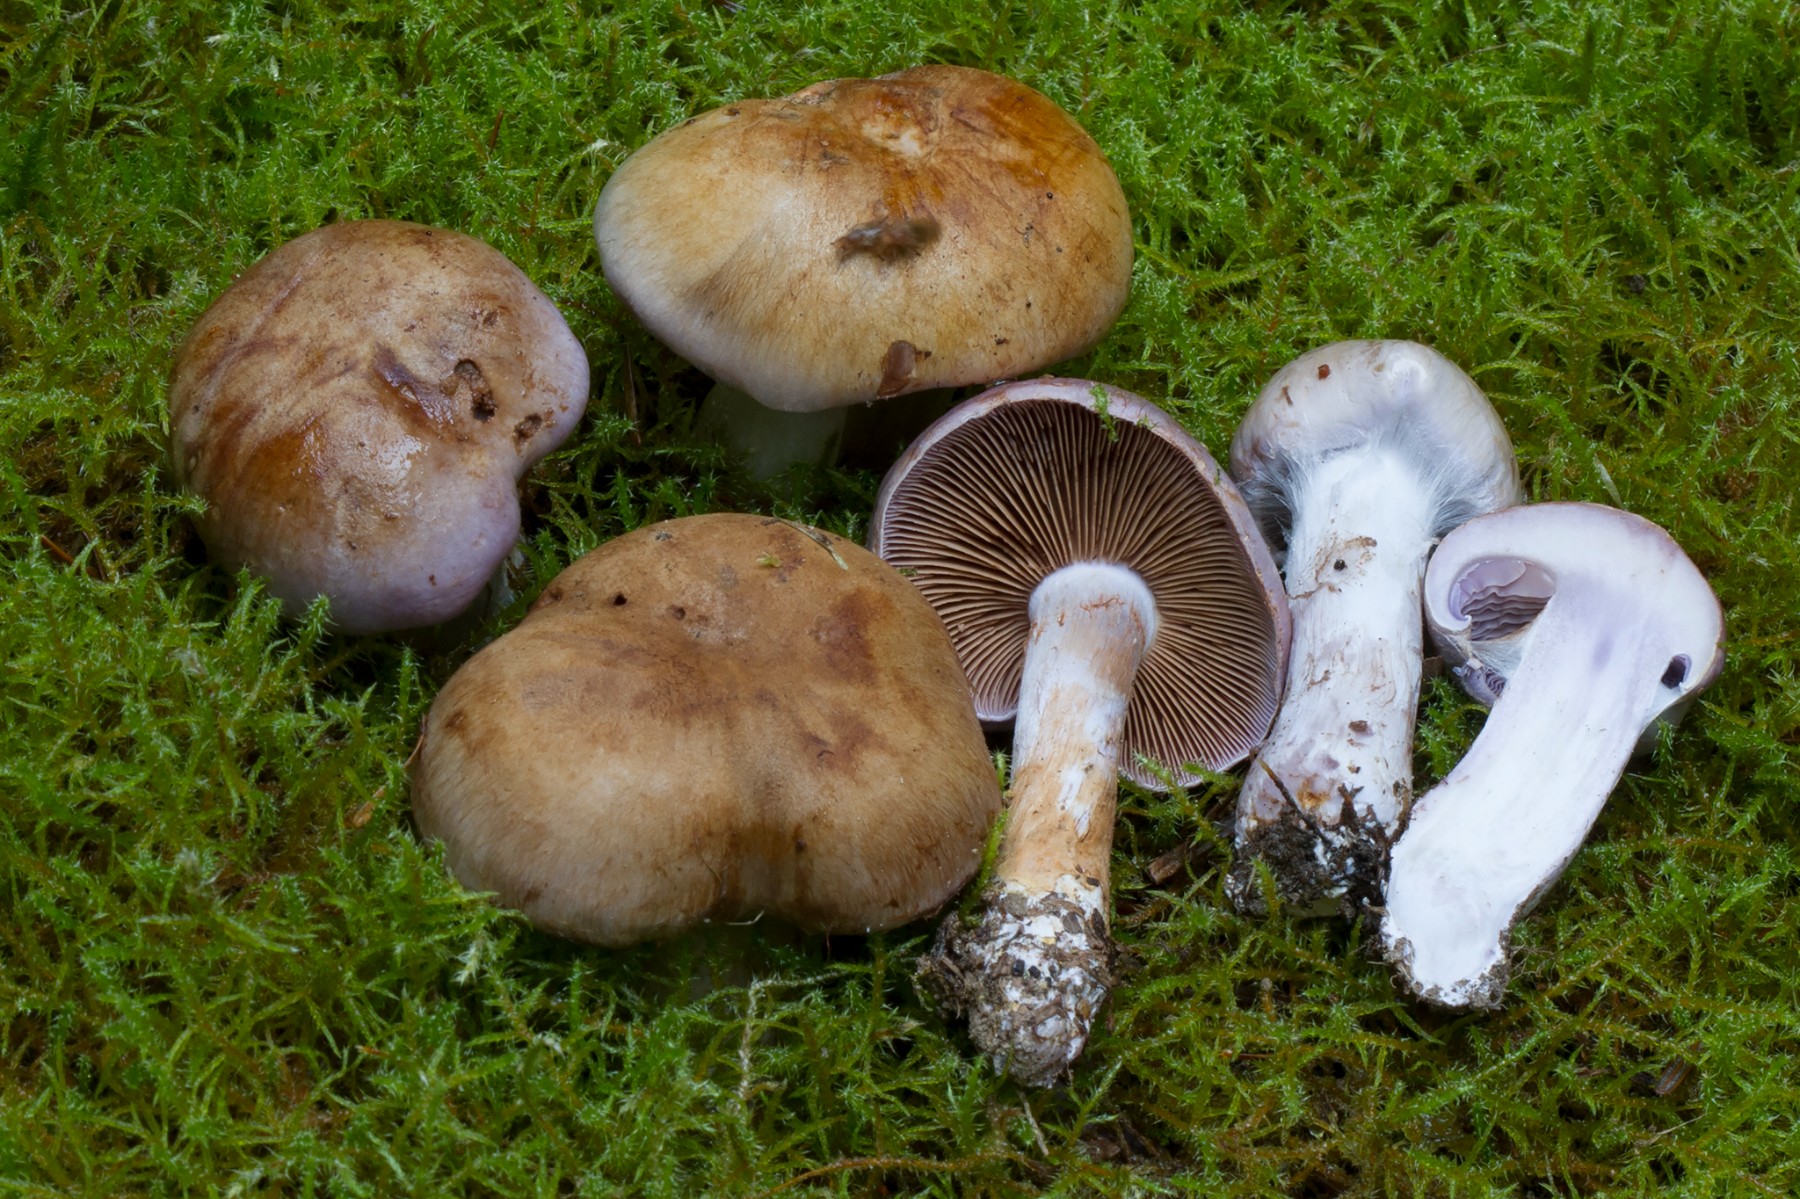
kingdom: Fungi
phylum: Basidiomycota
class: Agaricomycetes
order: Agaricales
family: Cortinariaceae
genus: Phlegmacium
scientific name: Phlegmacium eliae
